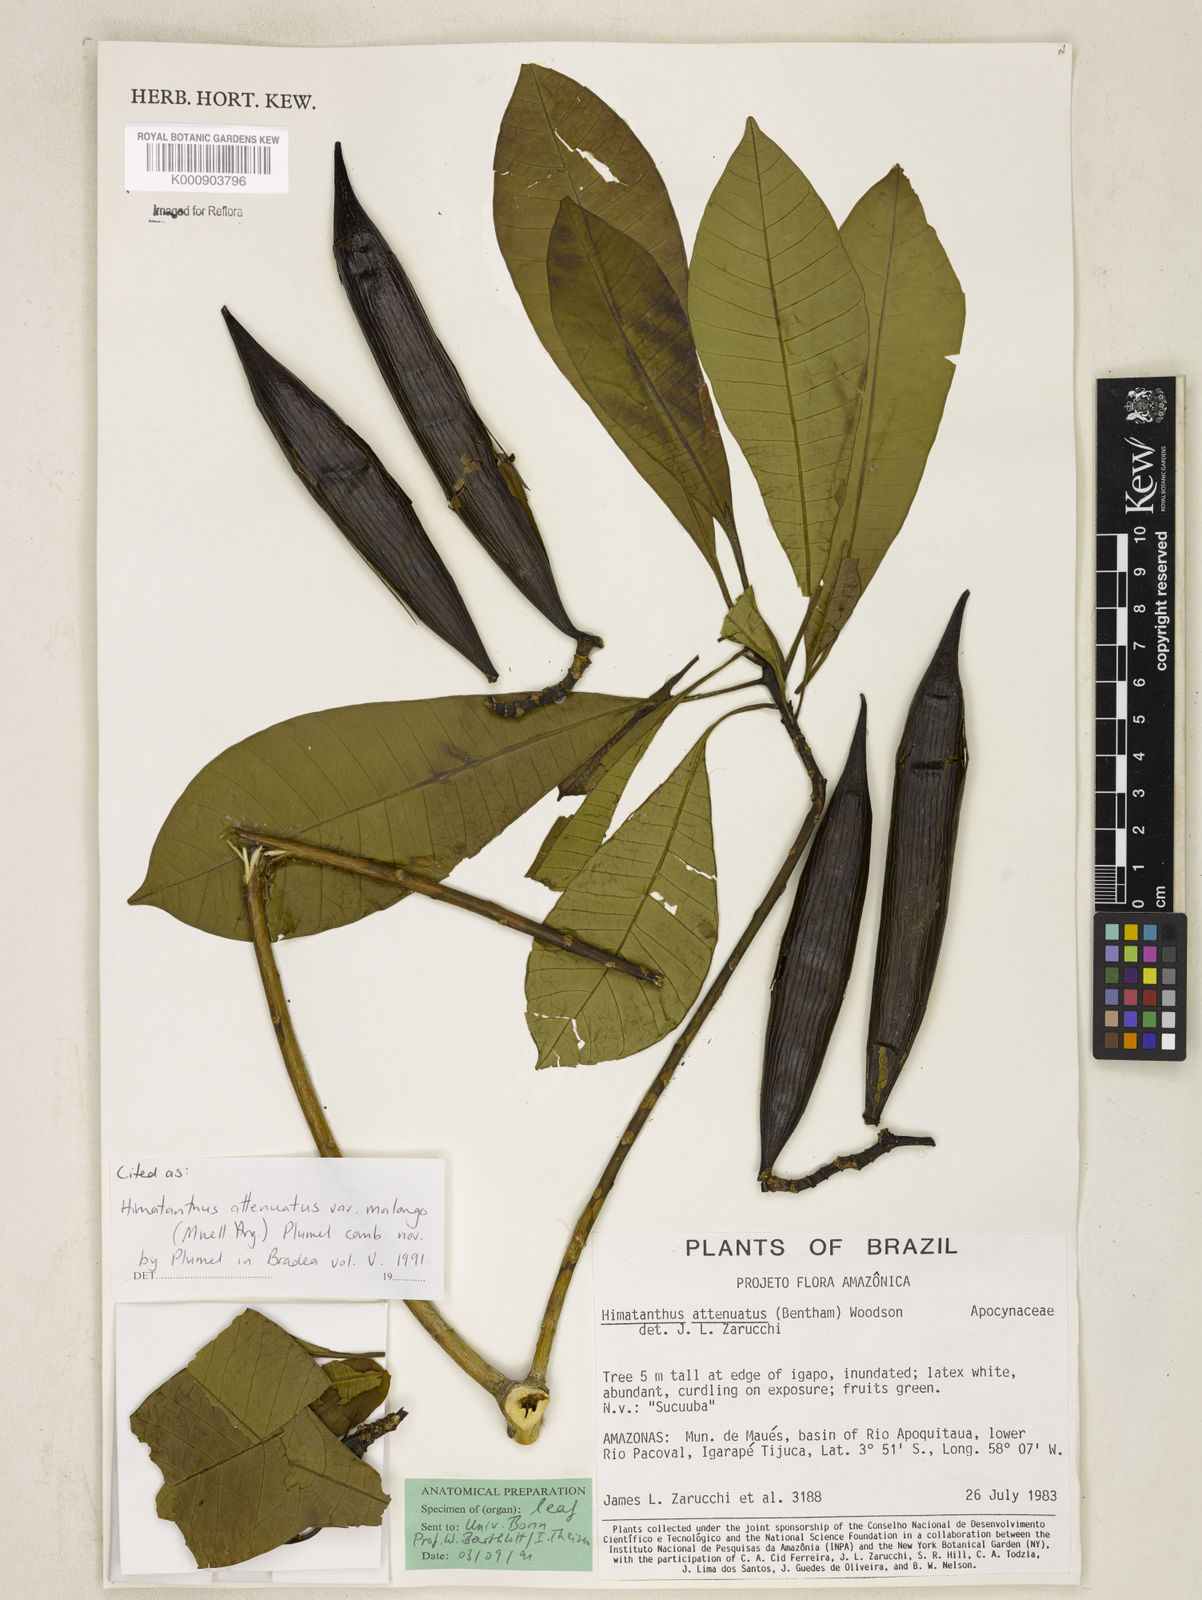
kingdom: Plantae
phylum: Tracheophyta
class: Magnoliopsida
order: Gentianales
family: Apocynaceae
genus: Himatanthus
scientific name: Himatanthus
